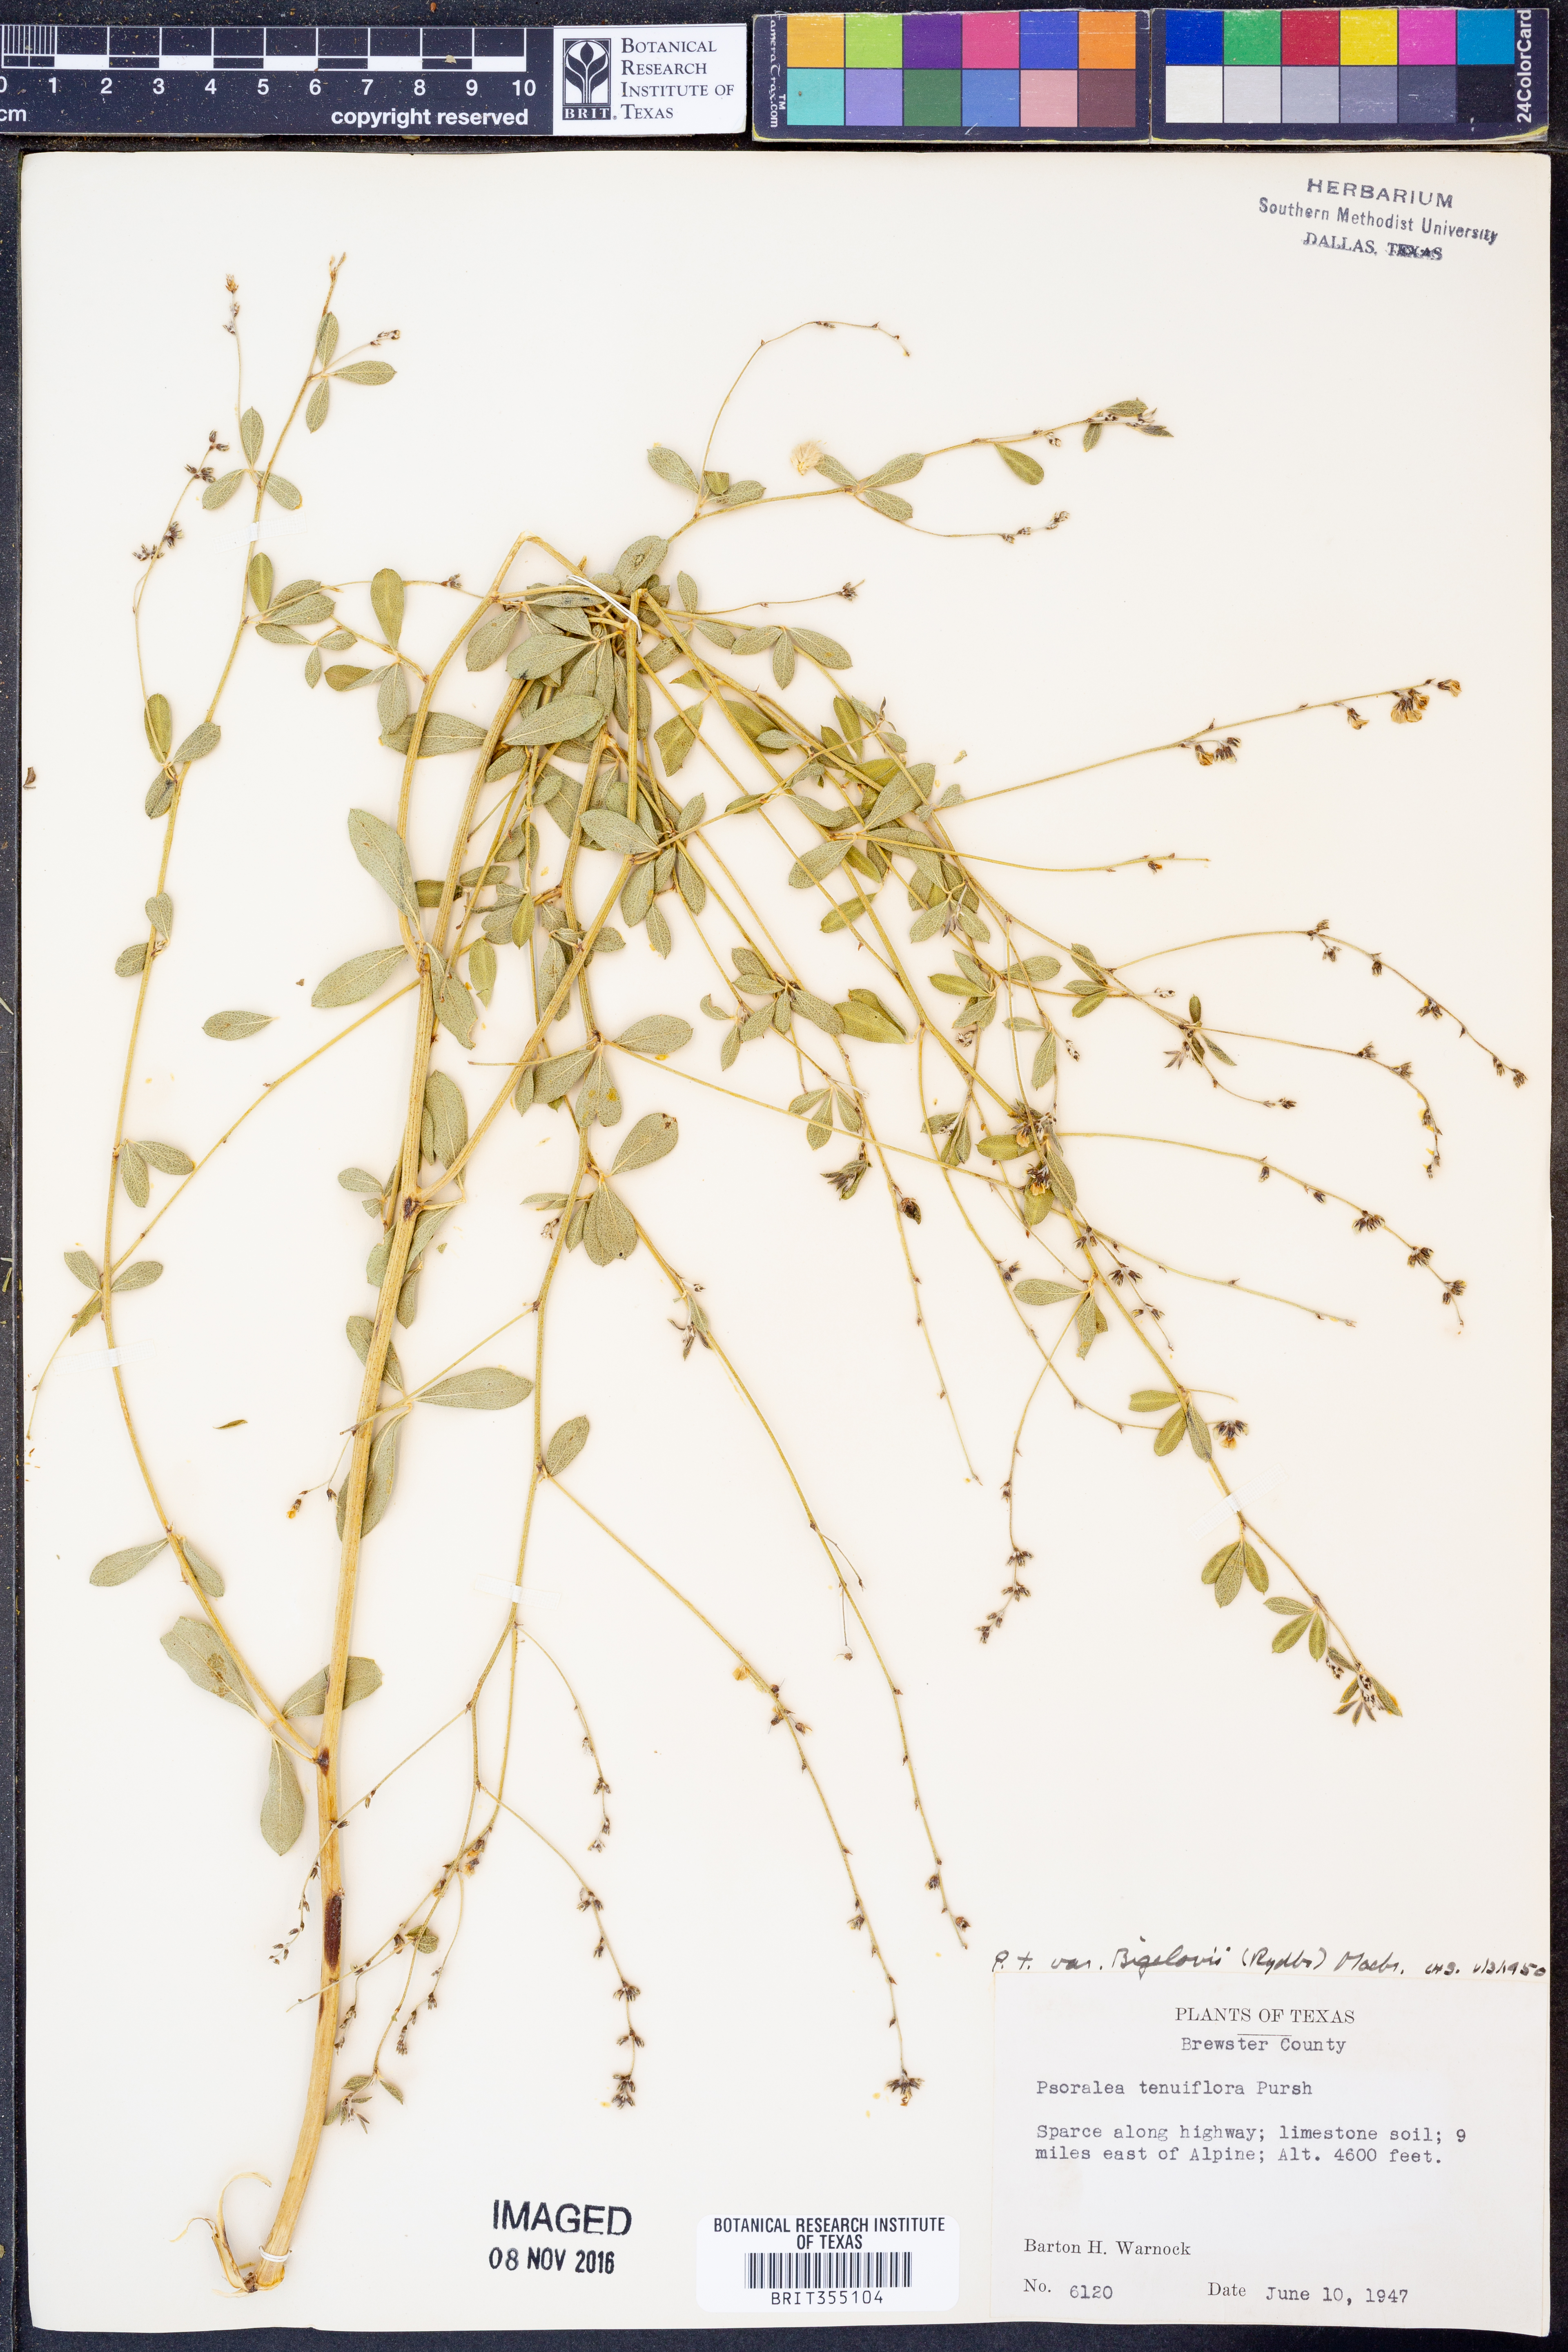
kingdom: Plantae
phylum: Tracheophyta
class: Magnoliopsida
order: Fabales
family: Fabaceae
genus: Pediomelum
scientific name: Pediomelum tenuiflorum
